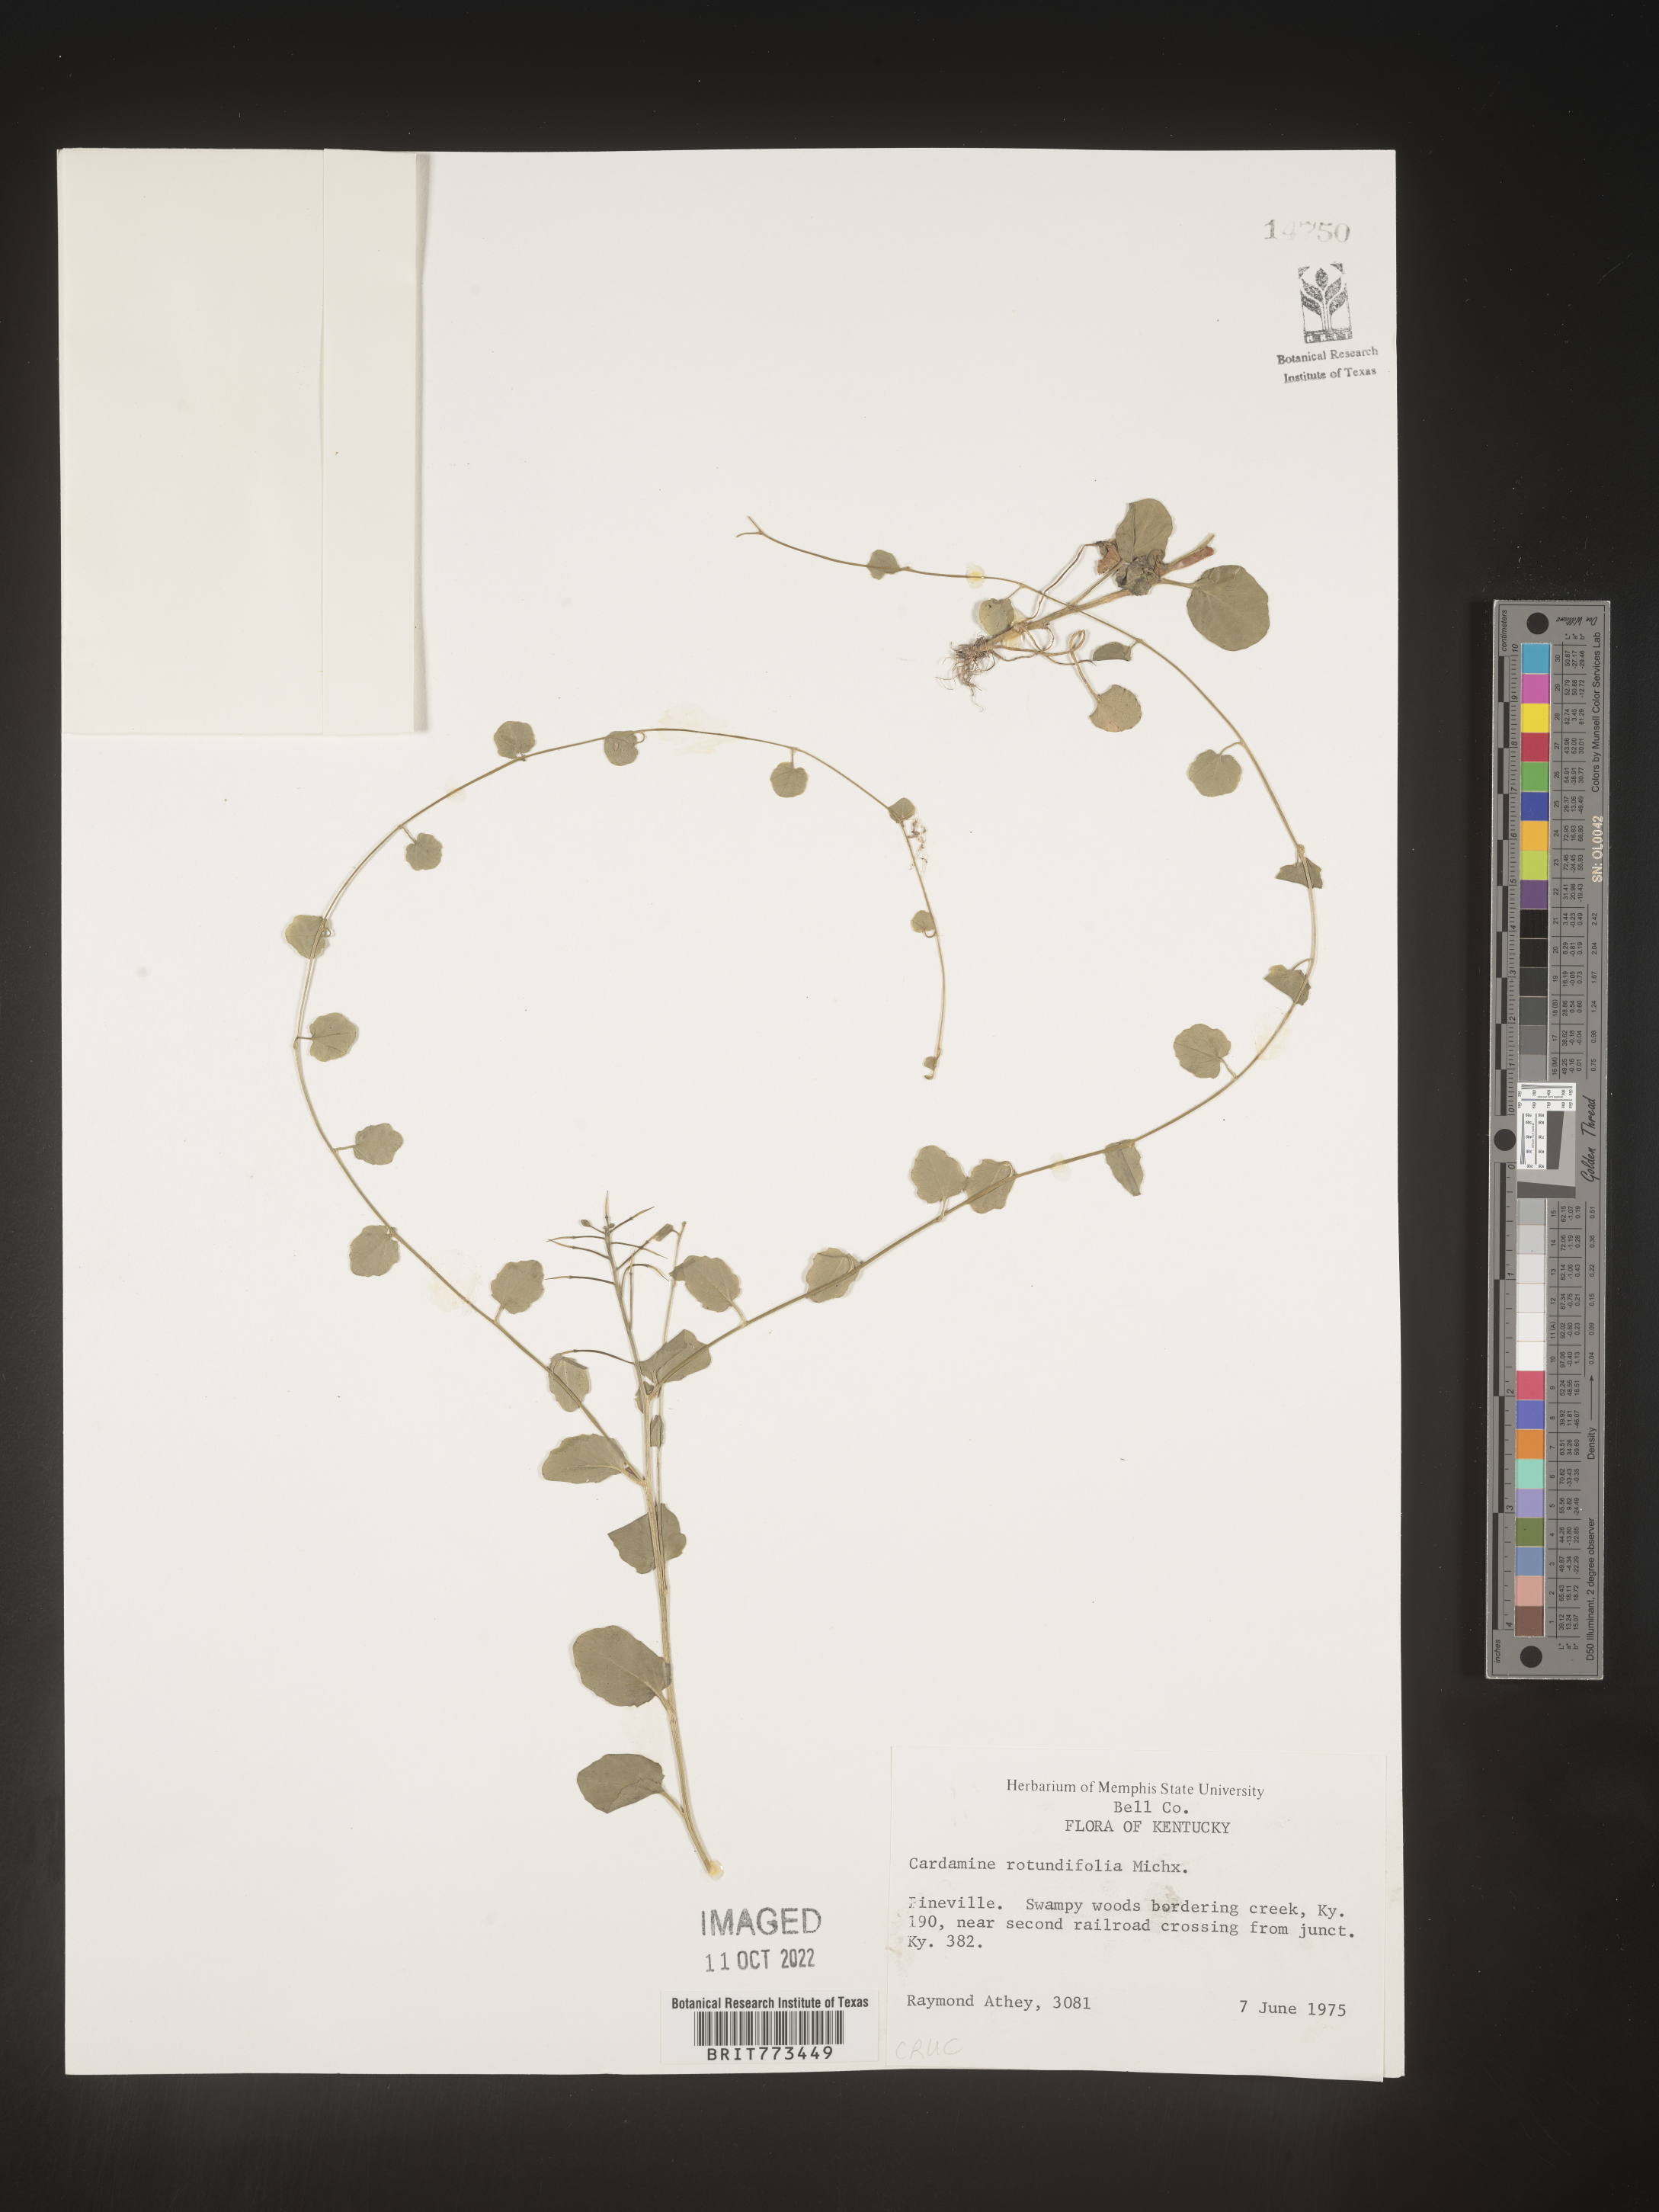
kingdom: Plantae
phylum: Tracheophyta
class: Magnoliopsida
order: Brassicales
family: Brassicaceae
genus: Cardamine
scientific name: Cardamine
